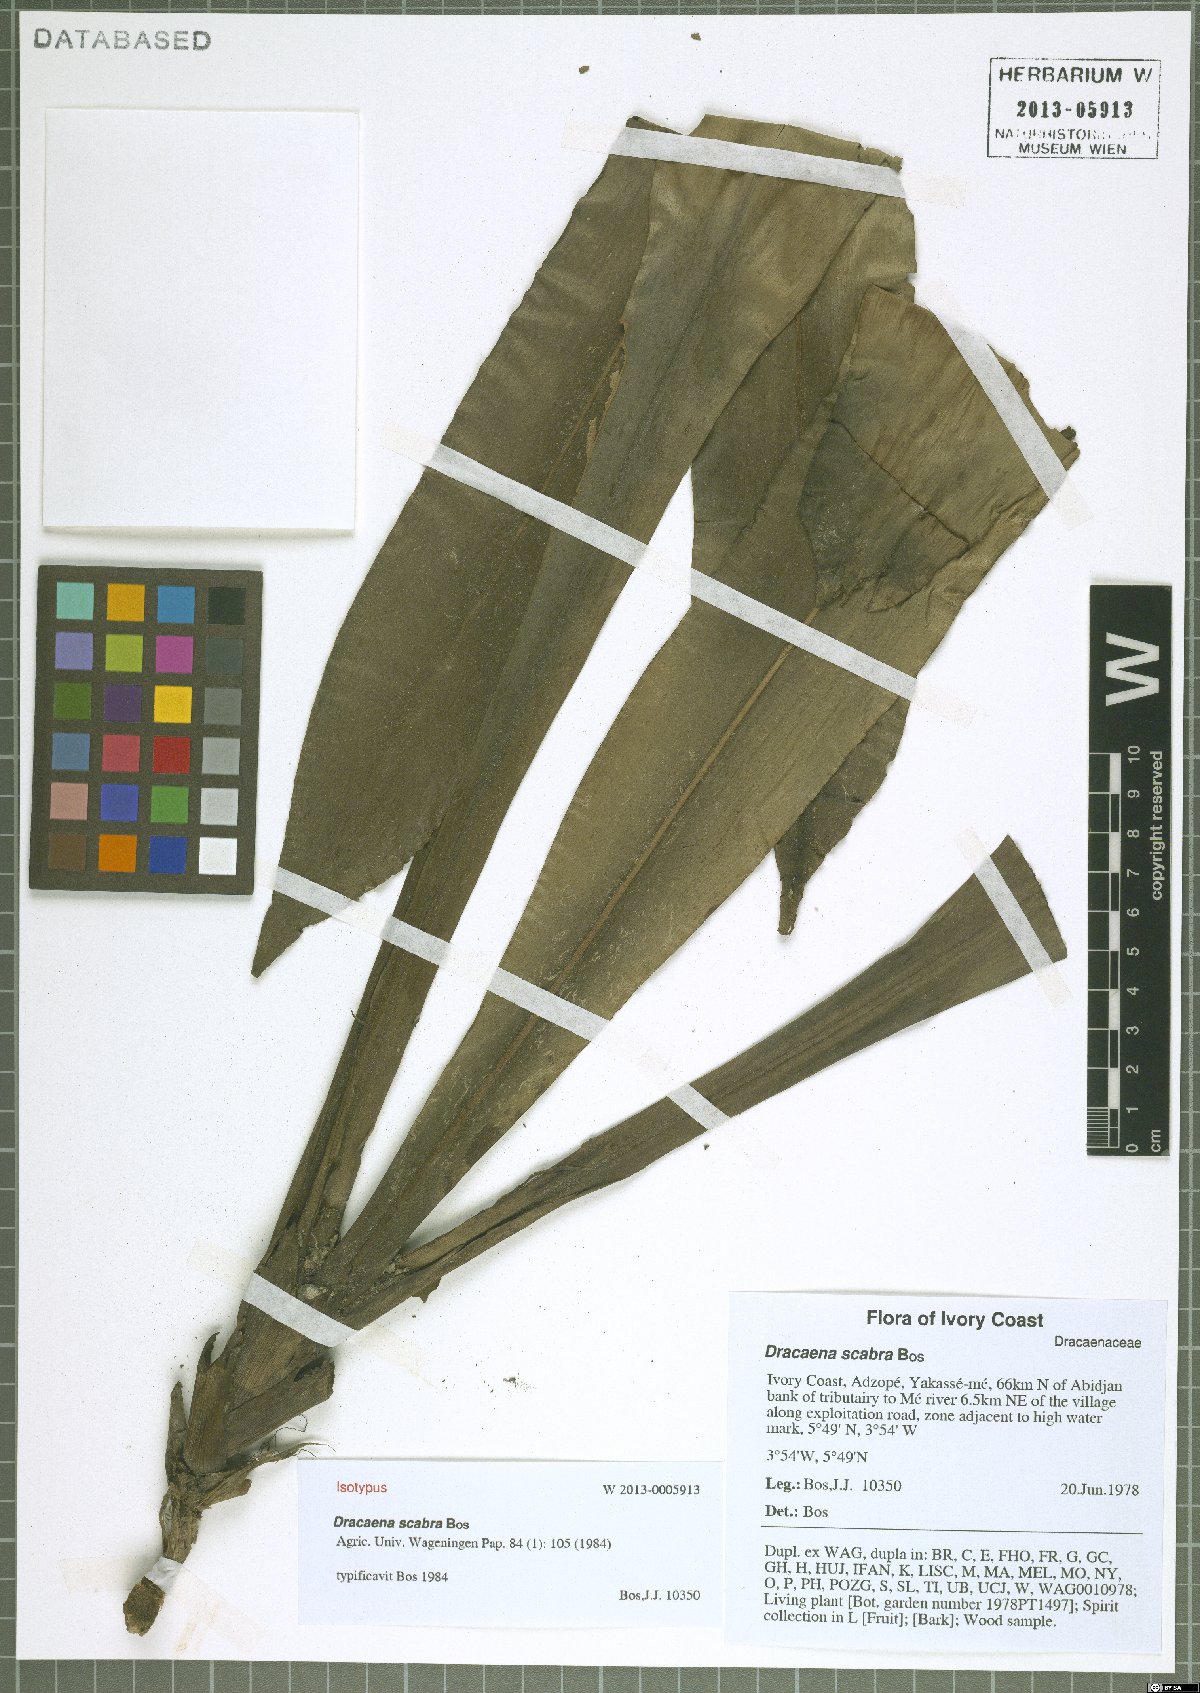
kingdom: Plantae
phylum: Tracheophyta
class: Liliopsida
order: Asparagales
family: Asparagaceae
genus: Dracaena
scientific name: Dracaena scabra
